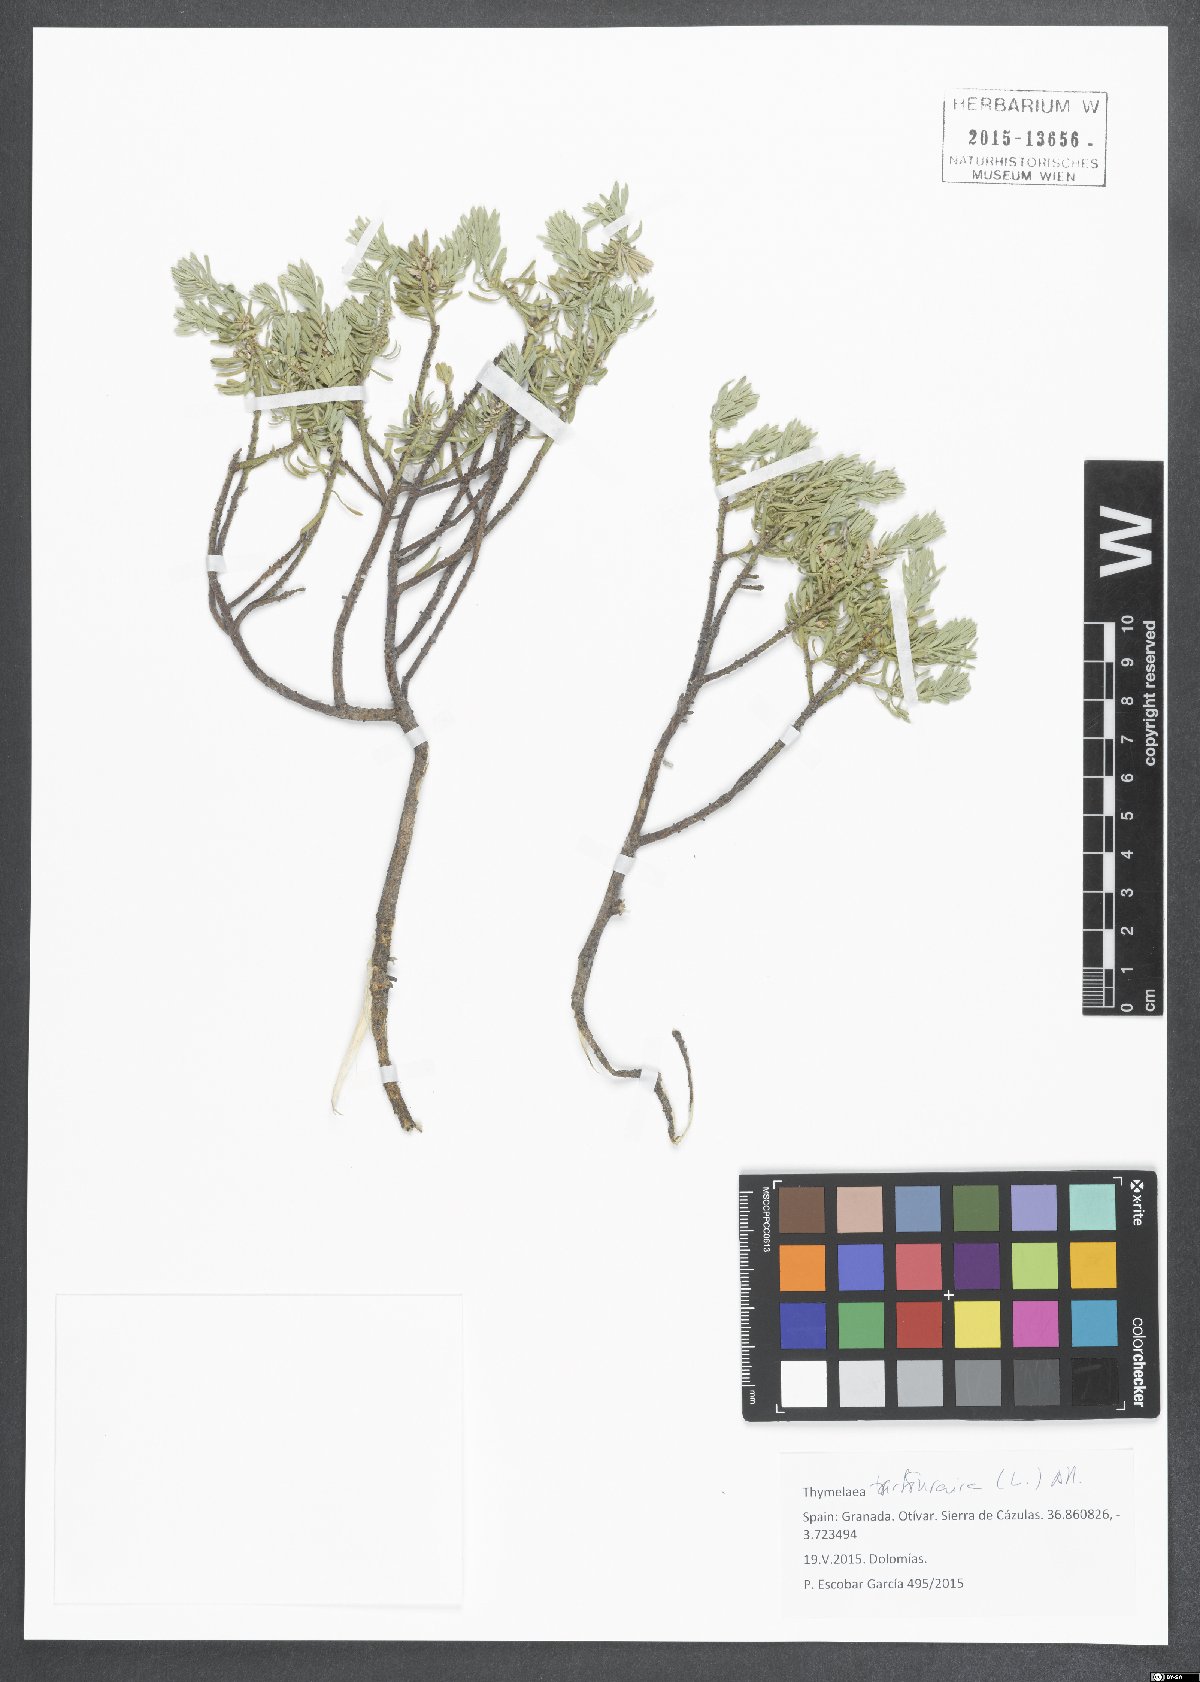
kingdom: Plantae
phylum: Tracheophyta
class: Magnoliopsida
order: Malvales
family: Thymelaeaceae
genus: Thymelaea
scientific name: Thymelaea tartonraira
